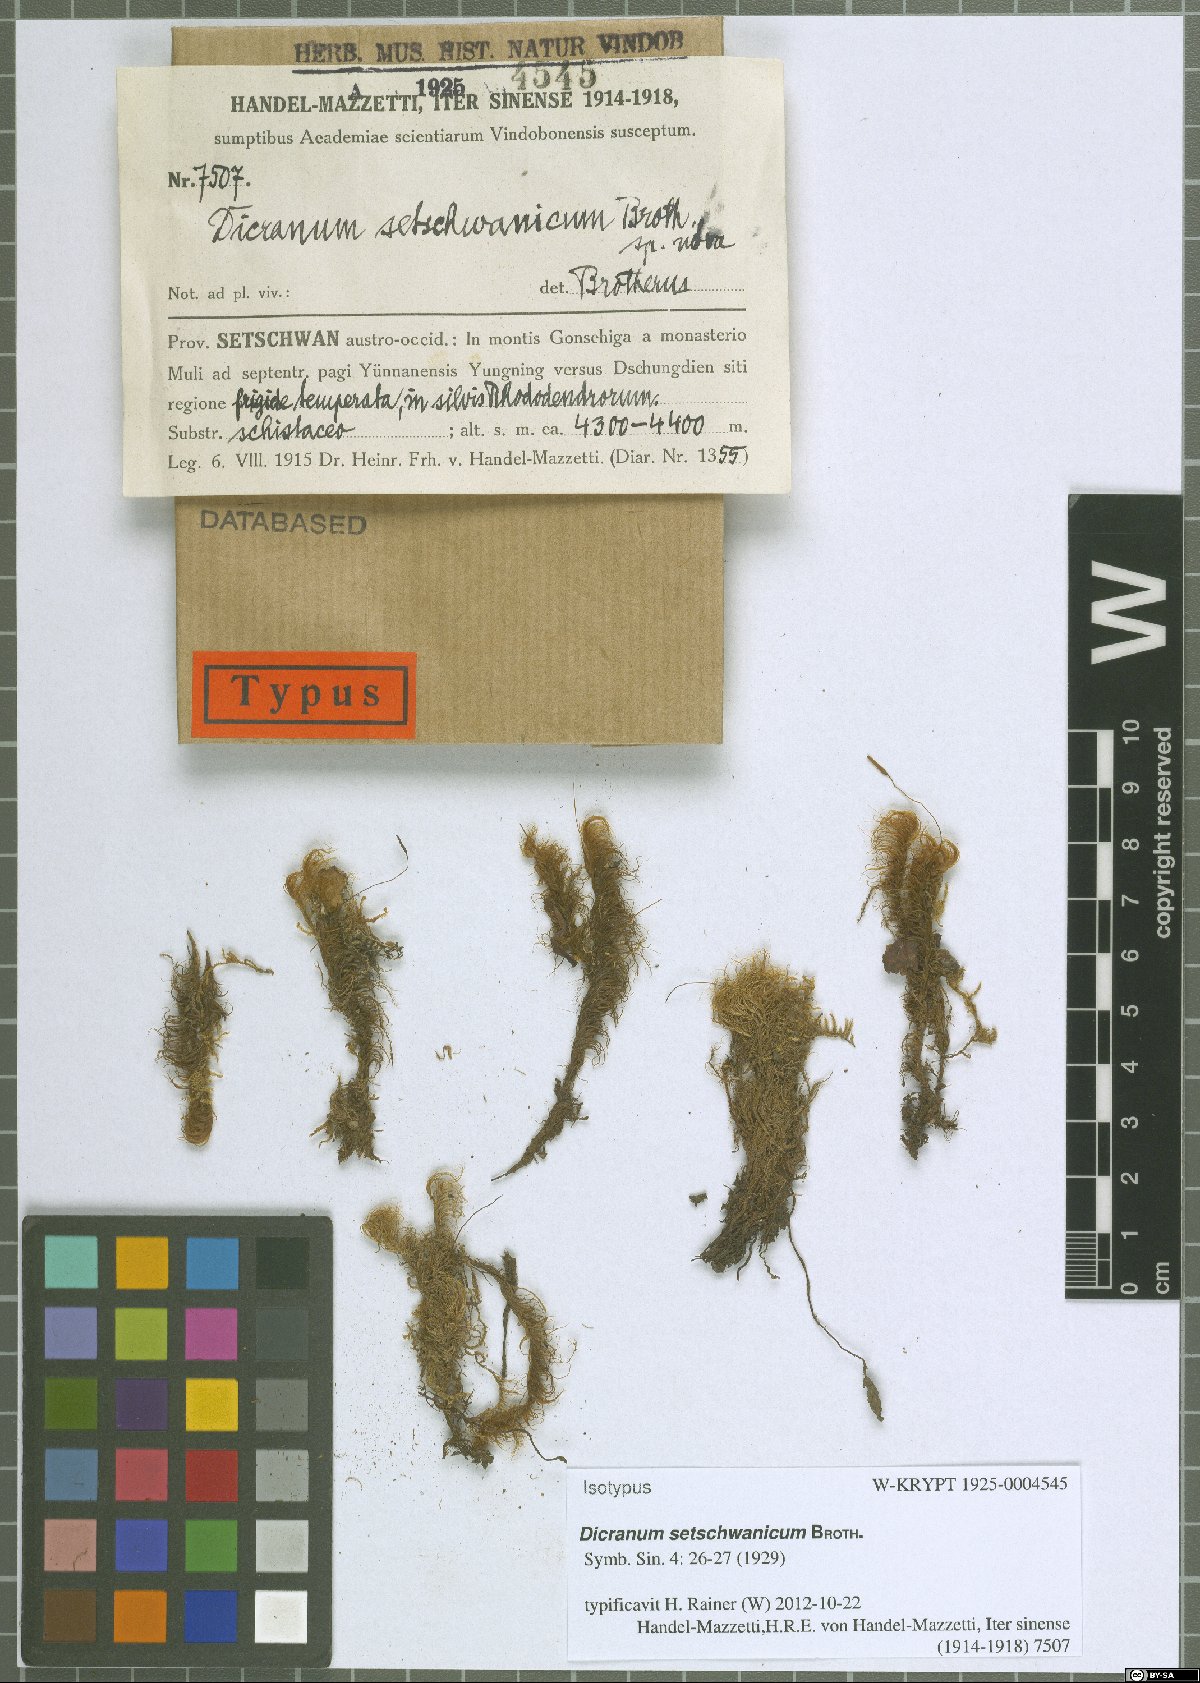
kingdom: Plantae
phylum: Bryophyta
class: Bryopsida
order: Dicranales
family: Dicranaceae
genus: Pseudochorisodontium
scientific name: Pseudochorisodontium setschwanicum
